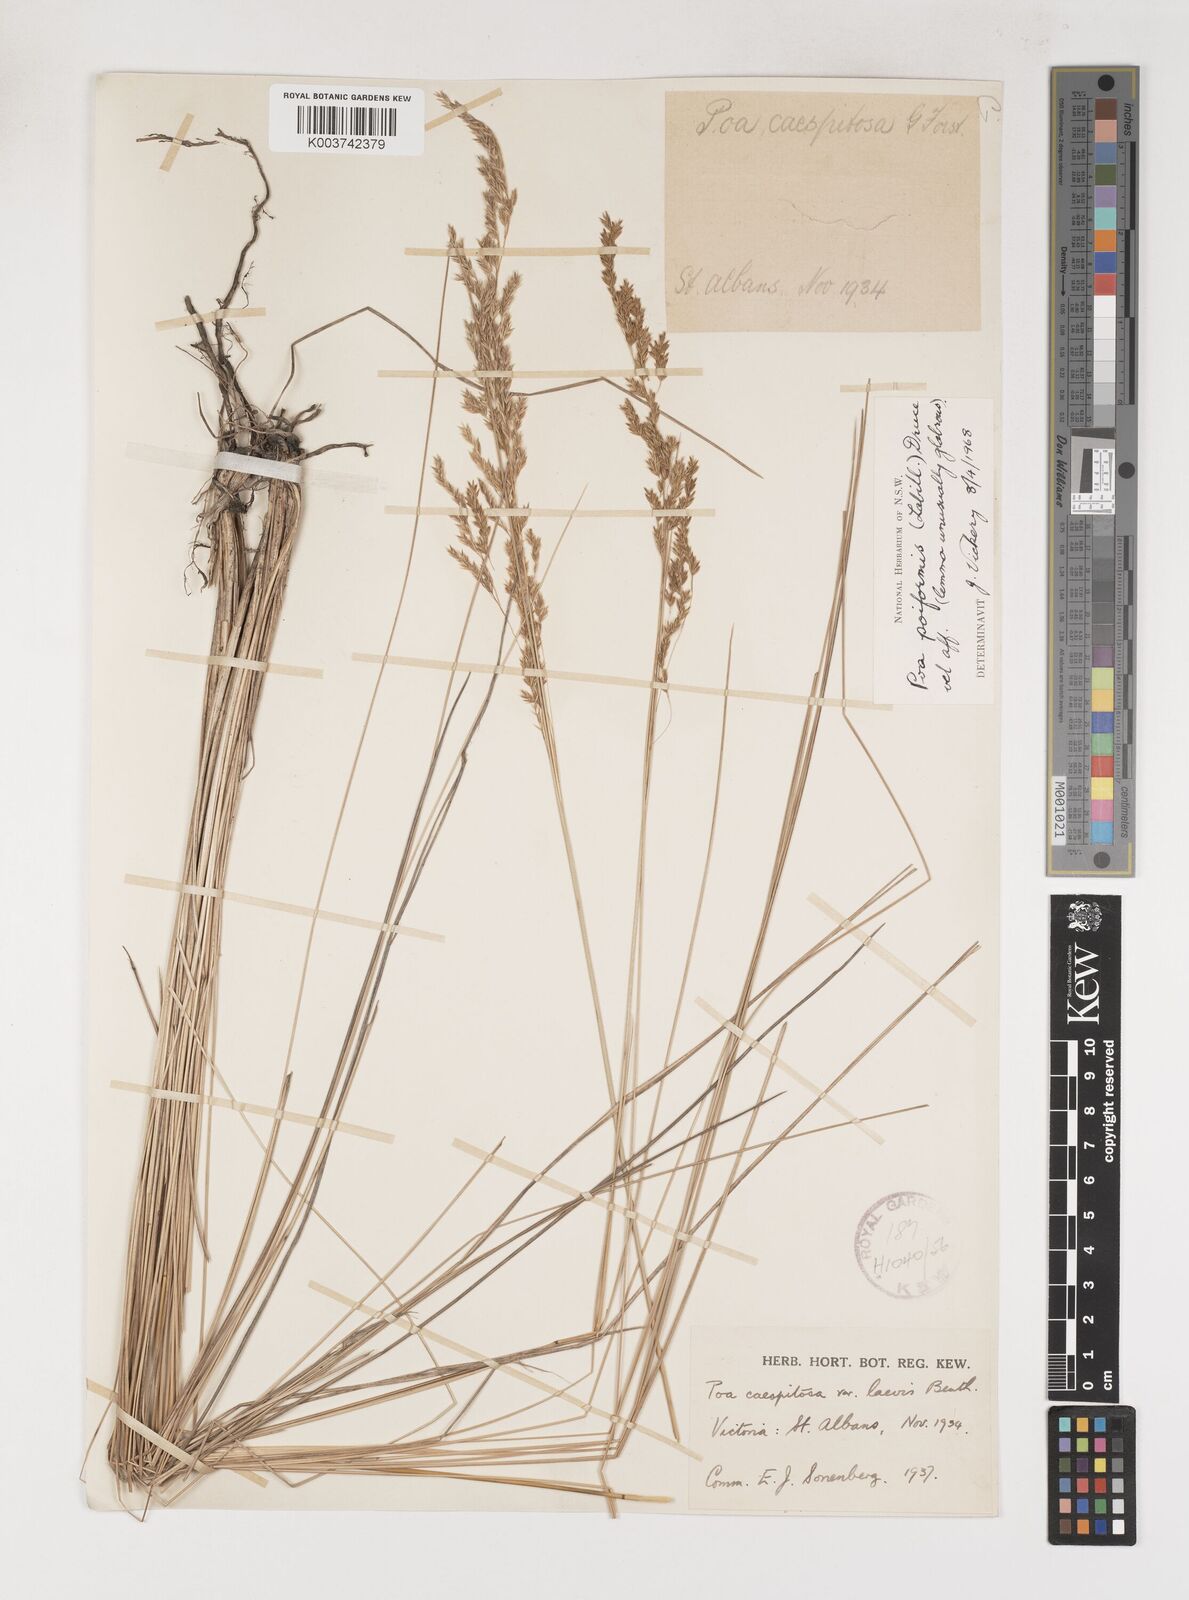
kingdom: Plantae
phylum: Tracheophyta
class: Liliopsida
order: Poales
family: Poaceae
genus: Poa
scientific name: Poa poiformis
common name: Tussock poa
